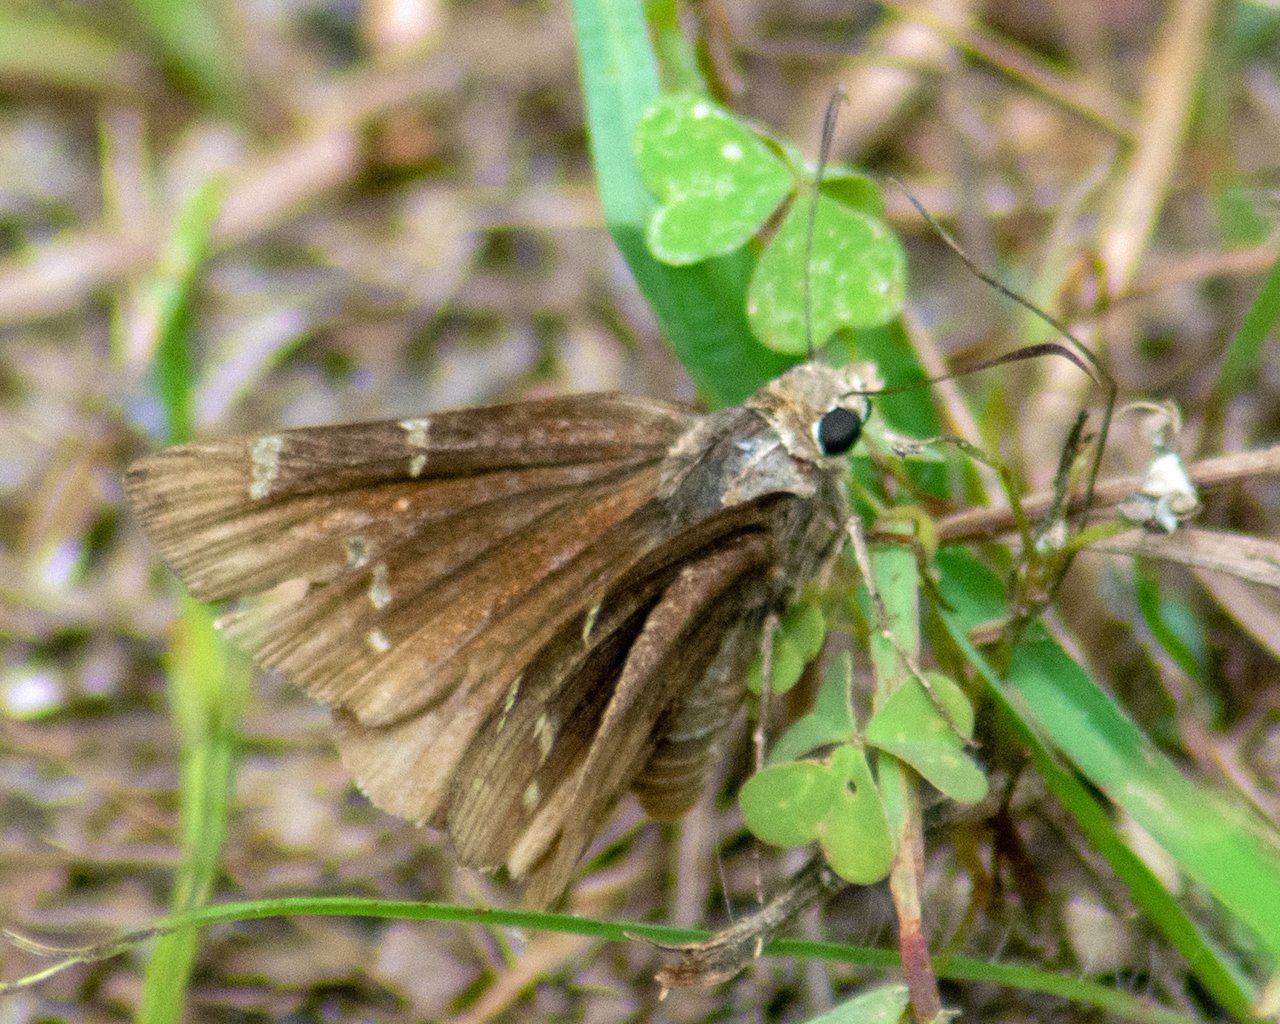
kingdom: Animalia
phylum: Arthropoda
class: Insecta
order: Lepidoptera
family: Hesperiidae
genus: Autochton
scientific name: Autochton
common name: Southern Cloudywing
